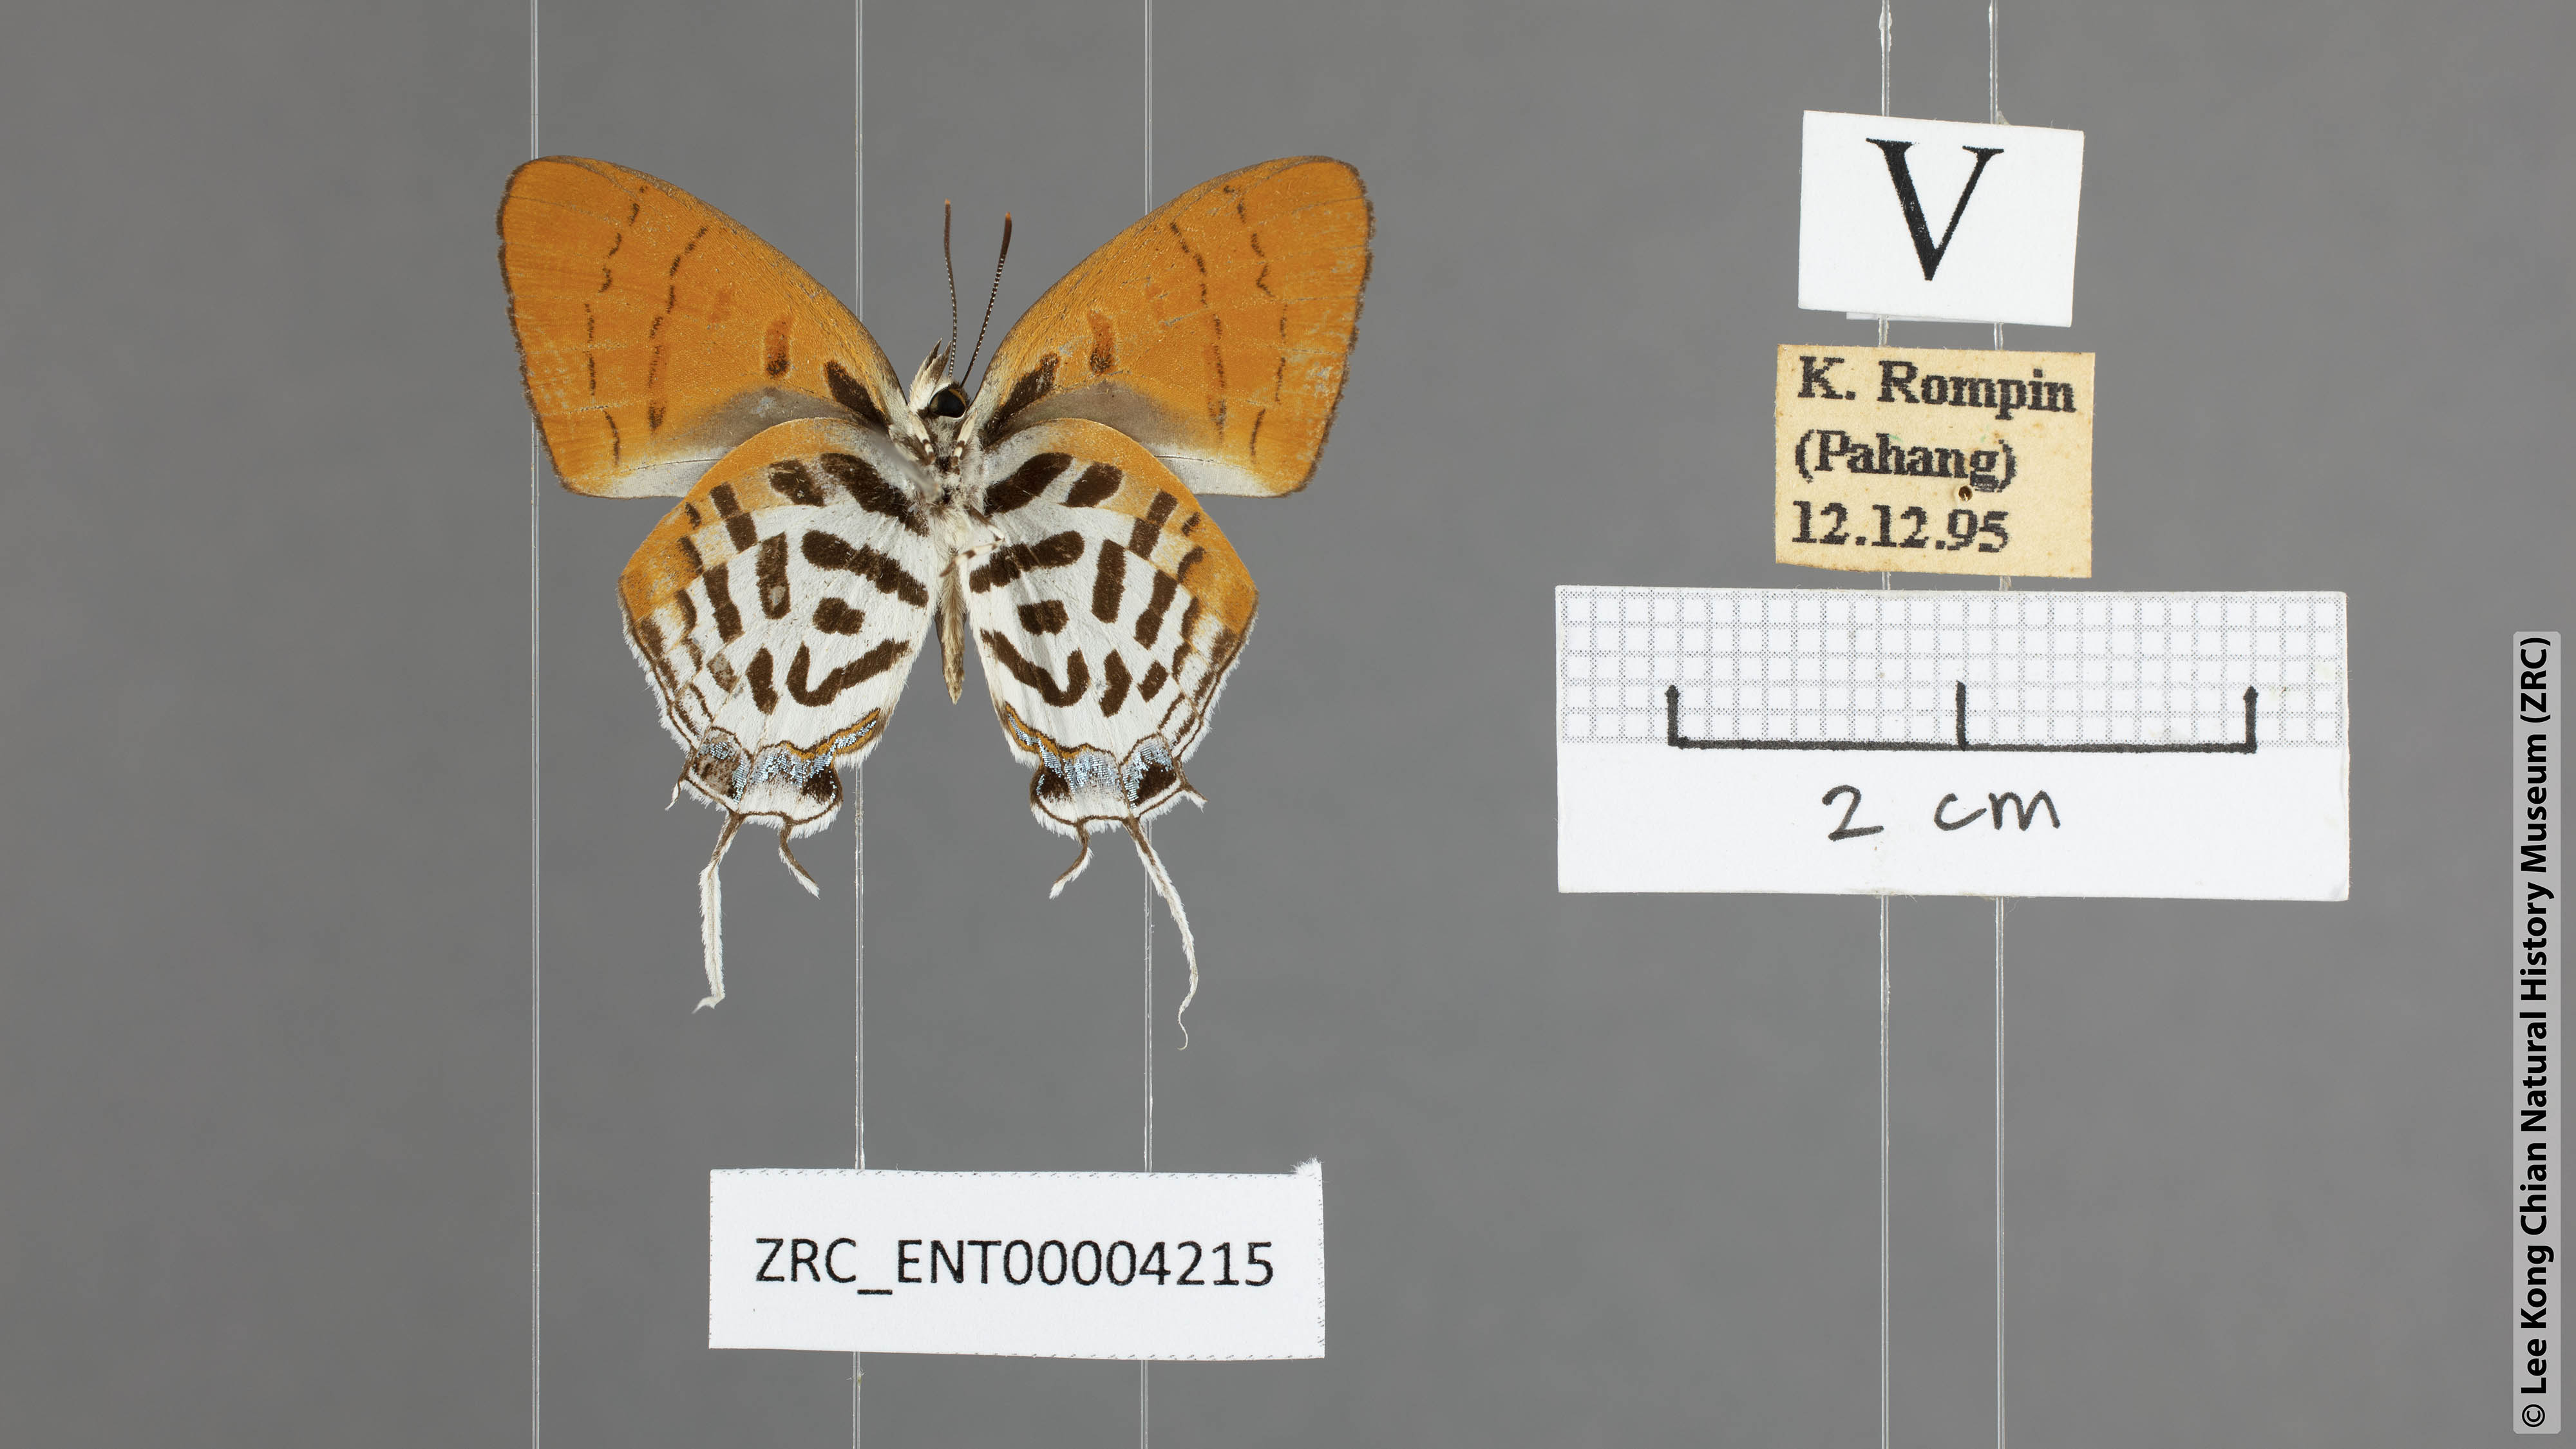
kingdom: Animalia
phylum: Arthropoda
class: Insecta
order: Lepidoptera
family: Lycaenidae
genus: Drupadia
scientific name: Drupadia ravindra
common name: Common posy
